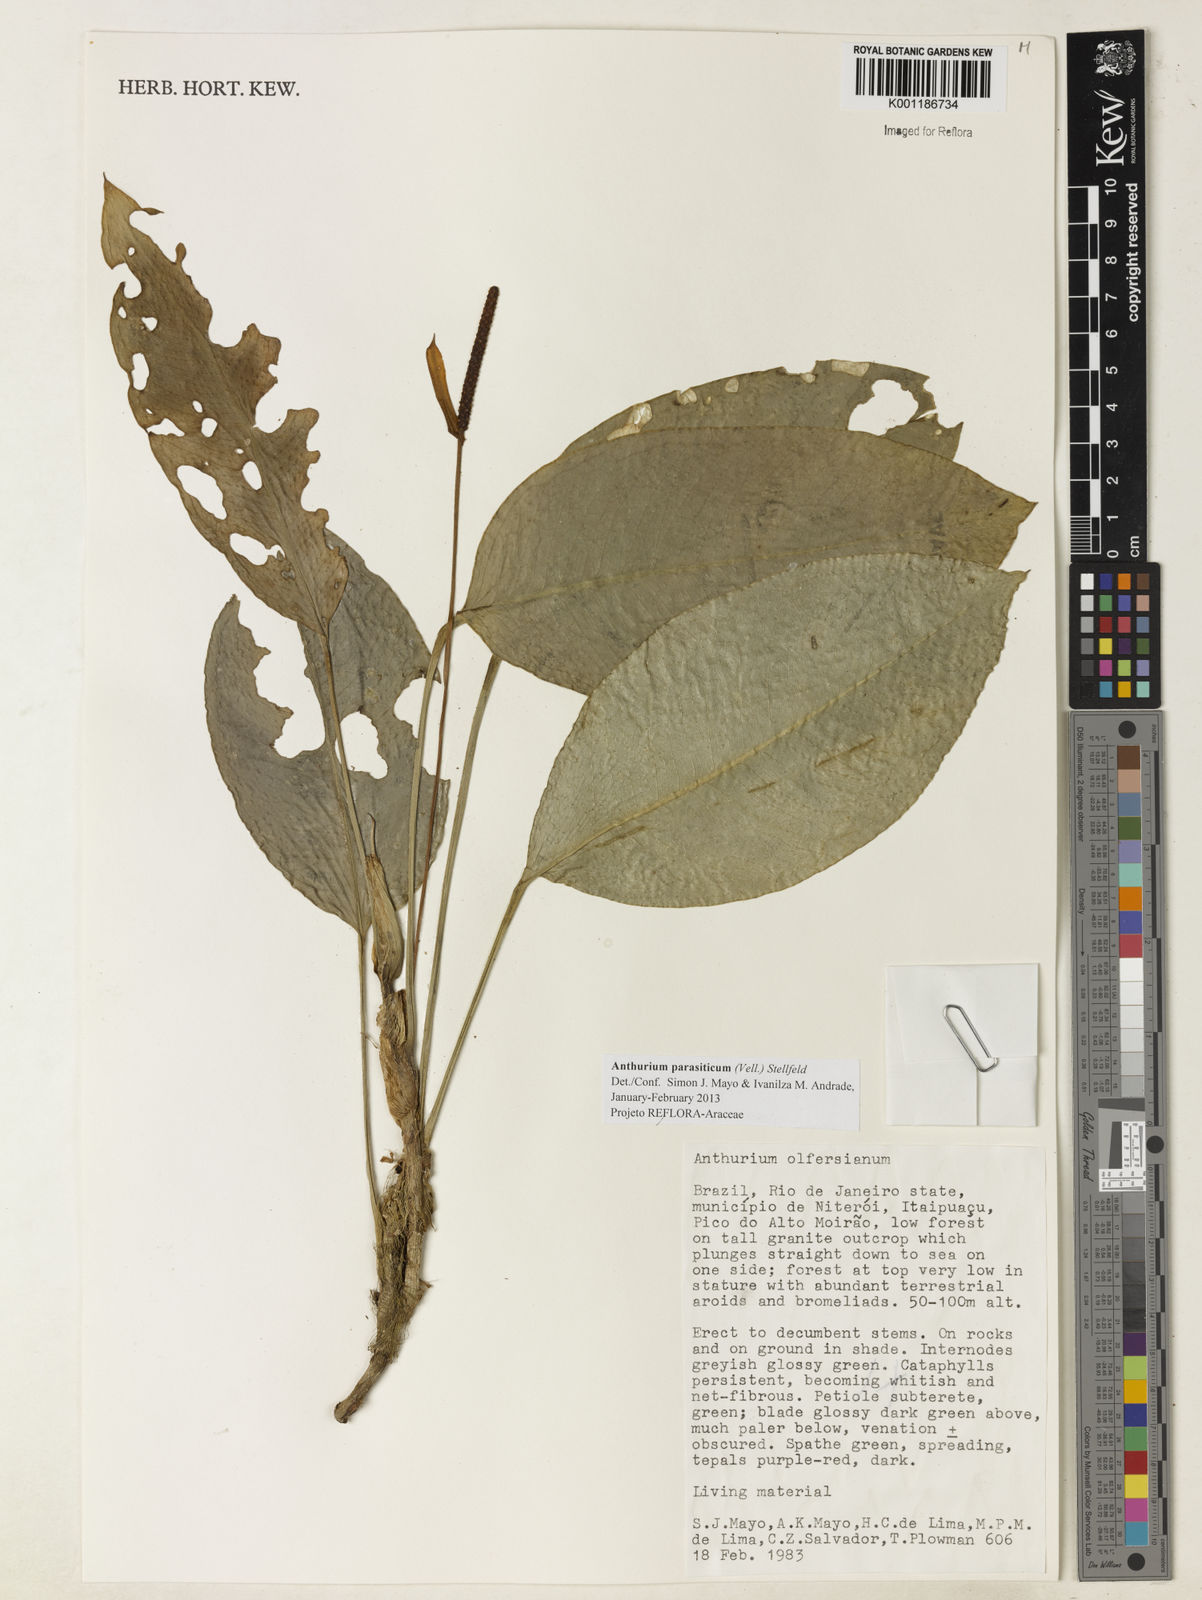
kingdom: Plantae
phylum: Tracheophyta
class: Liliopsida
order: Alismatales
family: Araceae
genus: Anthurium
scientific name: Anthurium parasiticum
